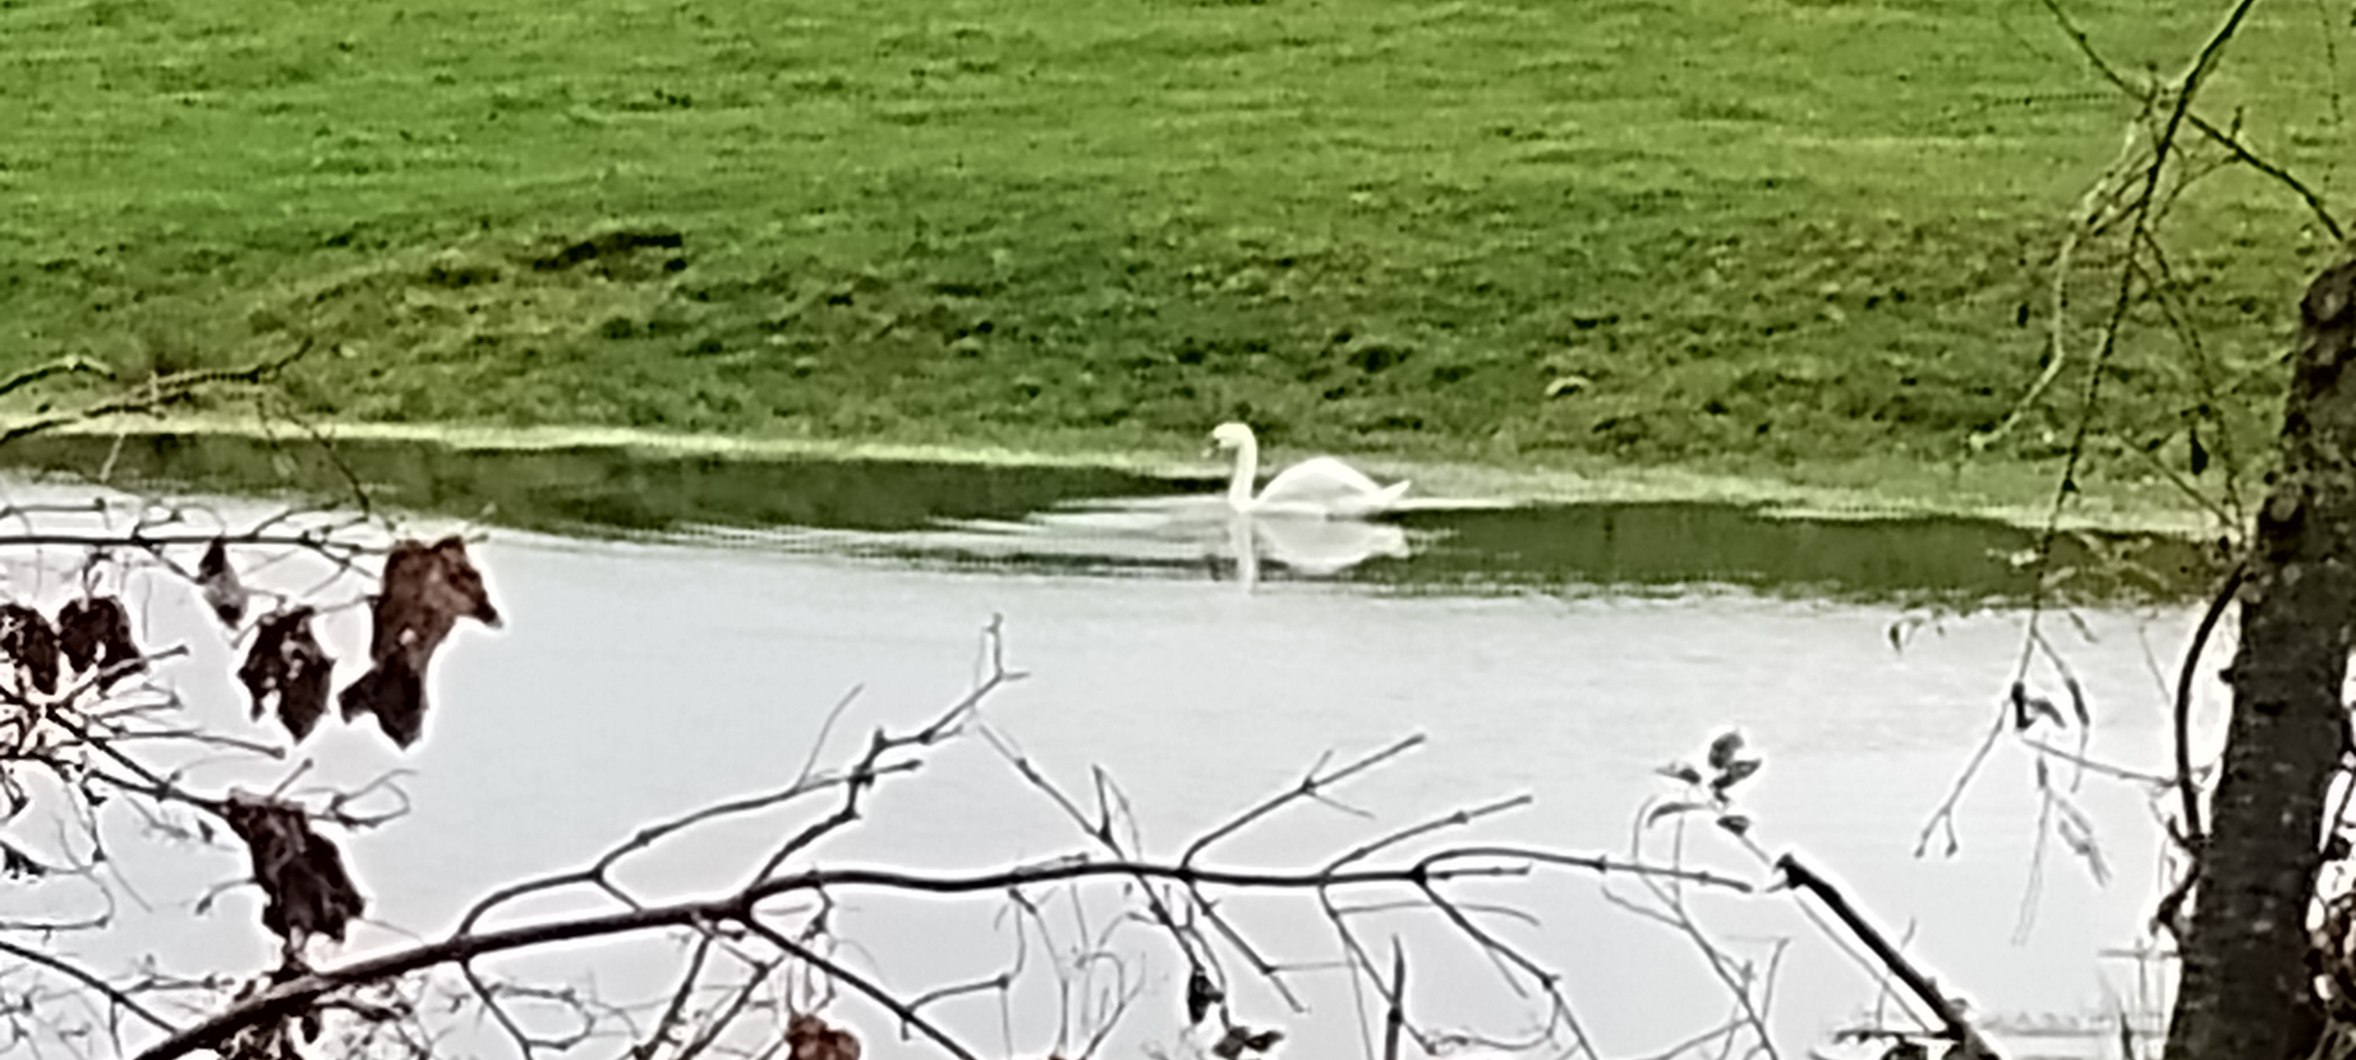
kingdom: Animalia
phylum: Chordata
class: Aves
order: Anseriformes
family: Anatidae
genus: Cygnus
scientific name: Cygnus olor
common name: Knopsvane
